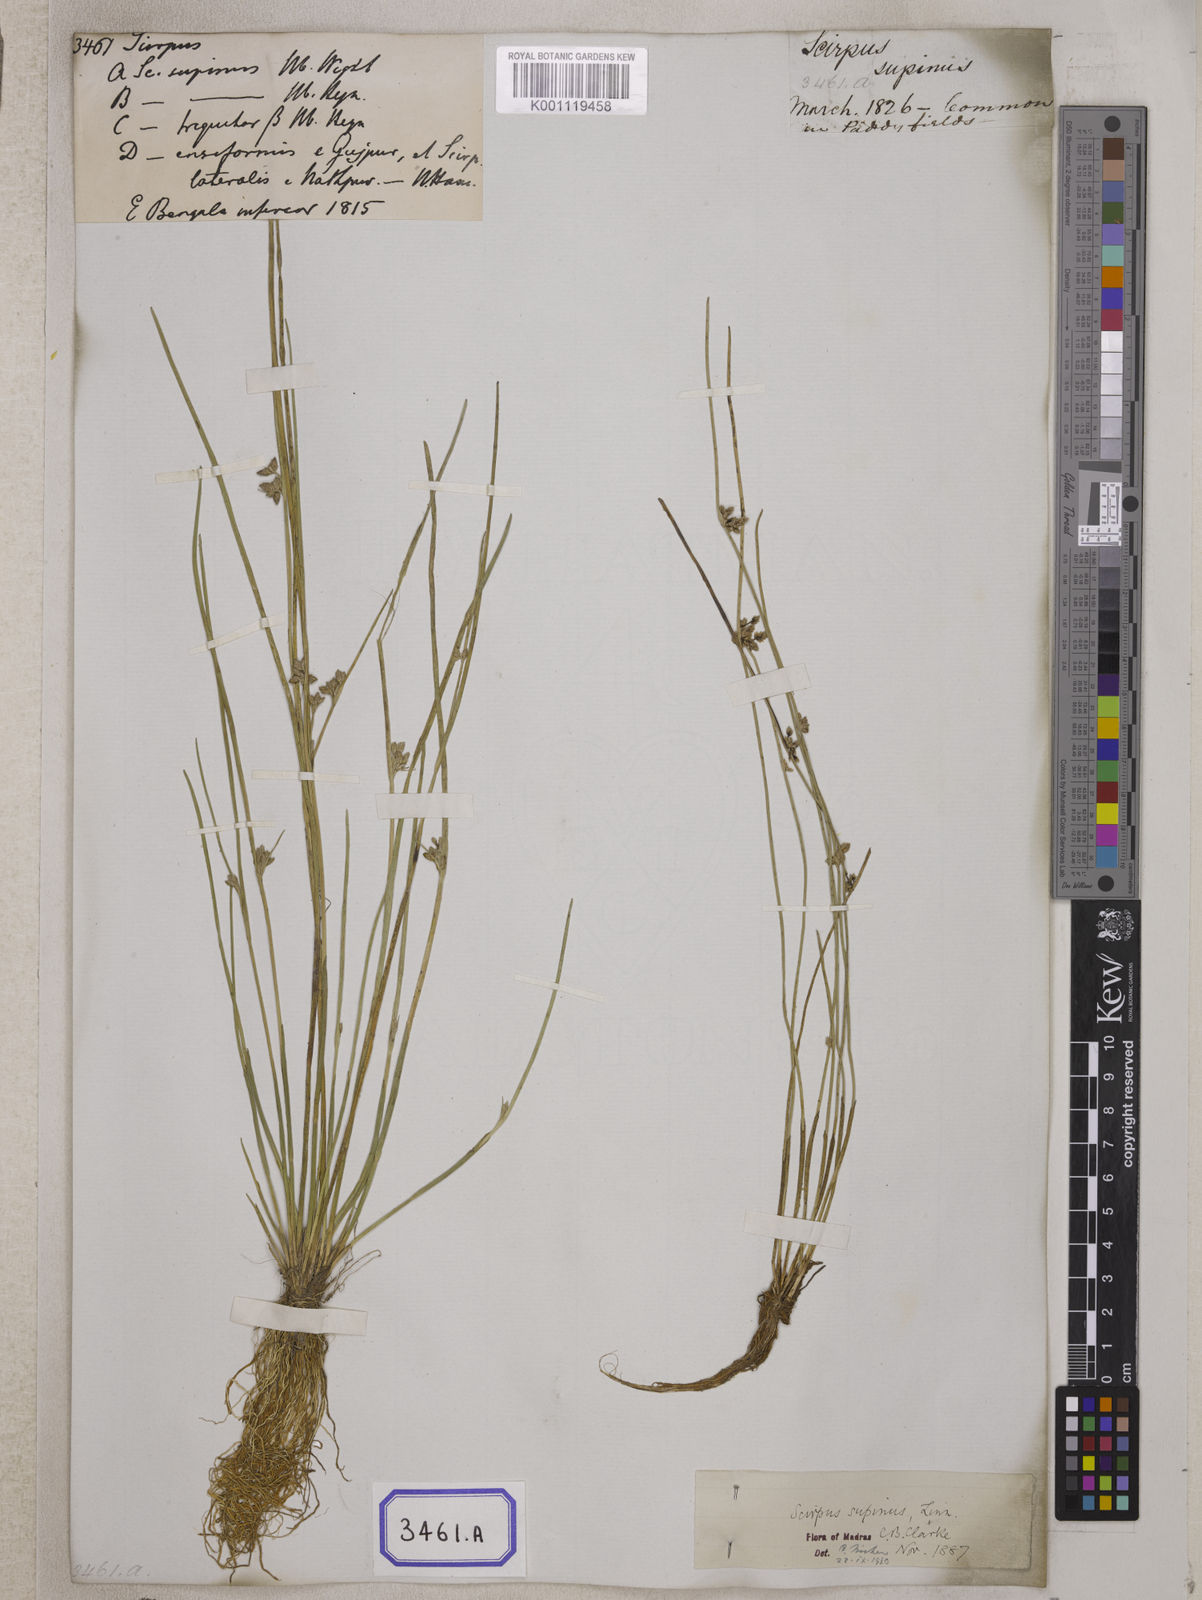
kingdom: Plantae
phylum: Tracheophyta
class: Liliopsida
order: Poales
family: Cyperaceae
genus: Scirpus
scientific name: Scirpus
